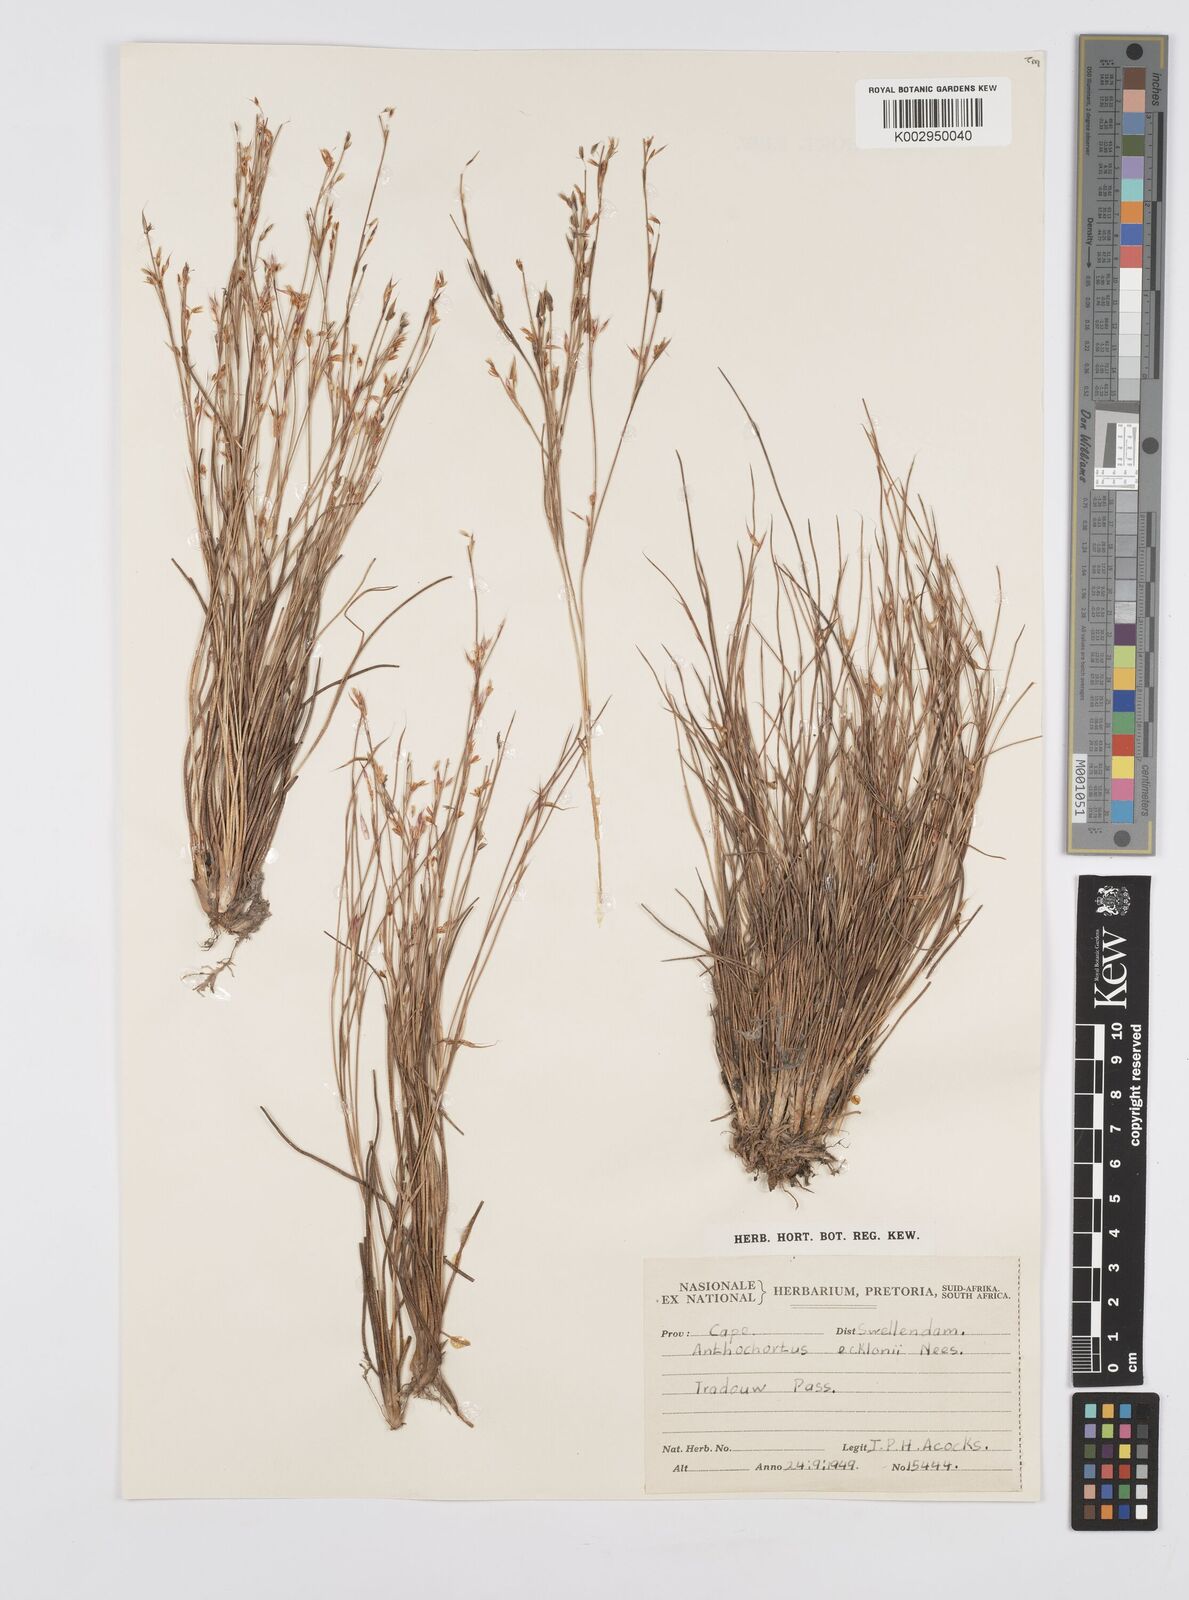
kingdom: Plantae
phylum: Tracheophyta
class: Liliopsida
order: Poales
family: Restionaceae
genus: Anthochortus
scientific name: Anthochortus ecklonii
